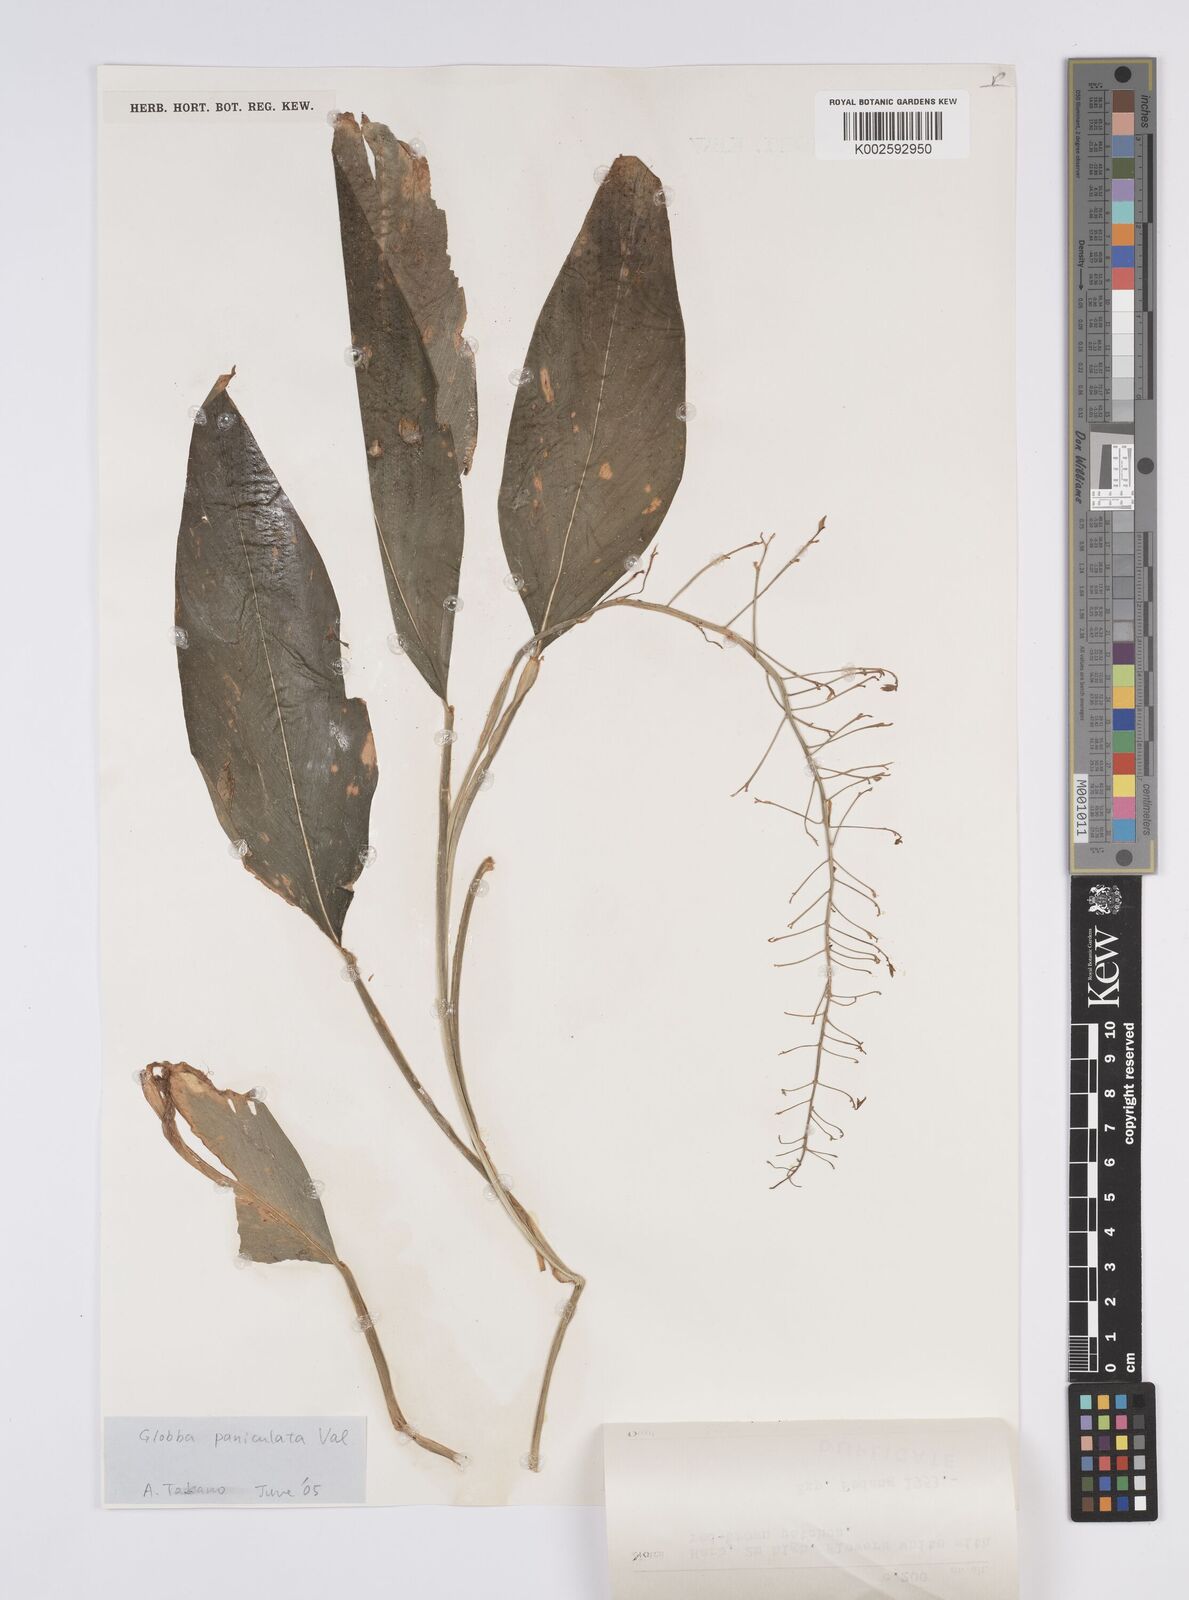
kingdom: Plantae
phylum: Tracheophyta
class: Liliopsida
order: Zingiberales
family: Zingiberaceae
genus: Globba
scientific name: Globba paniculata
